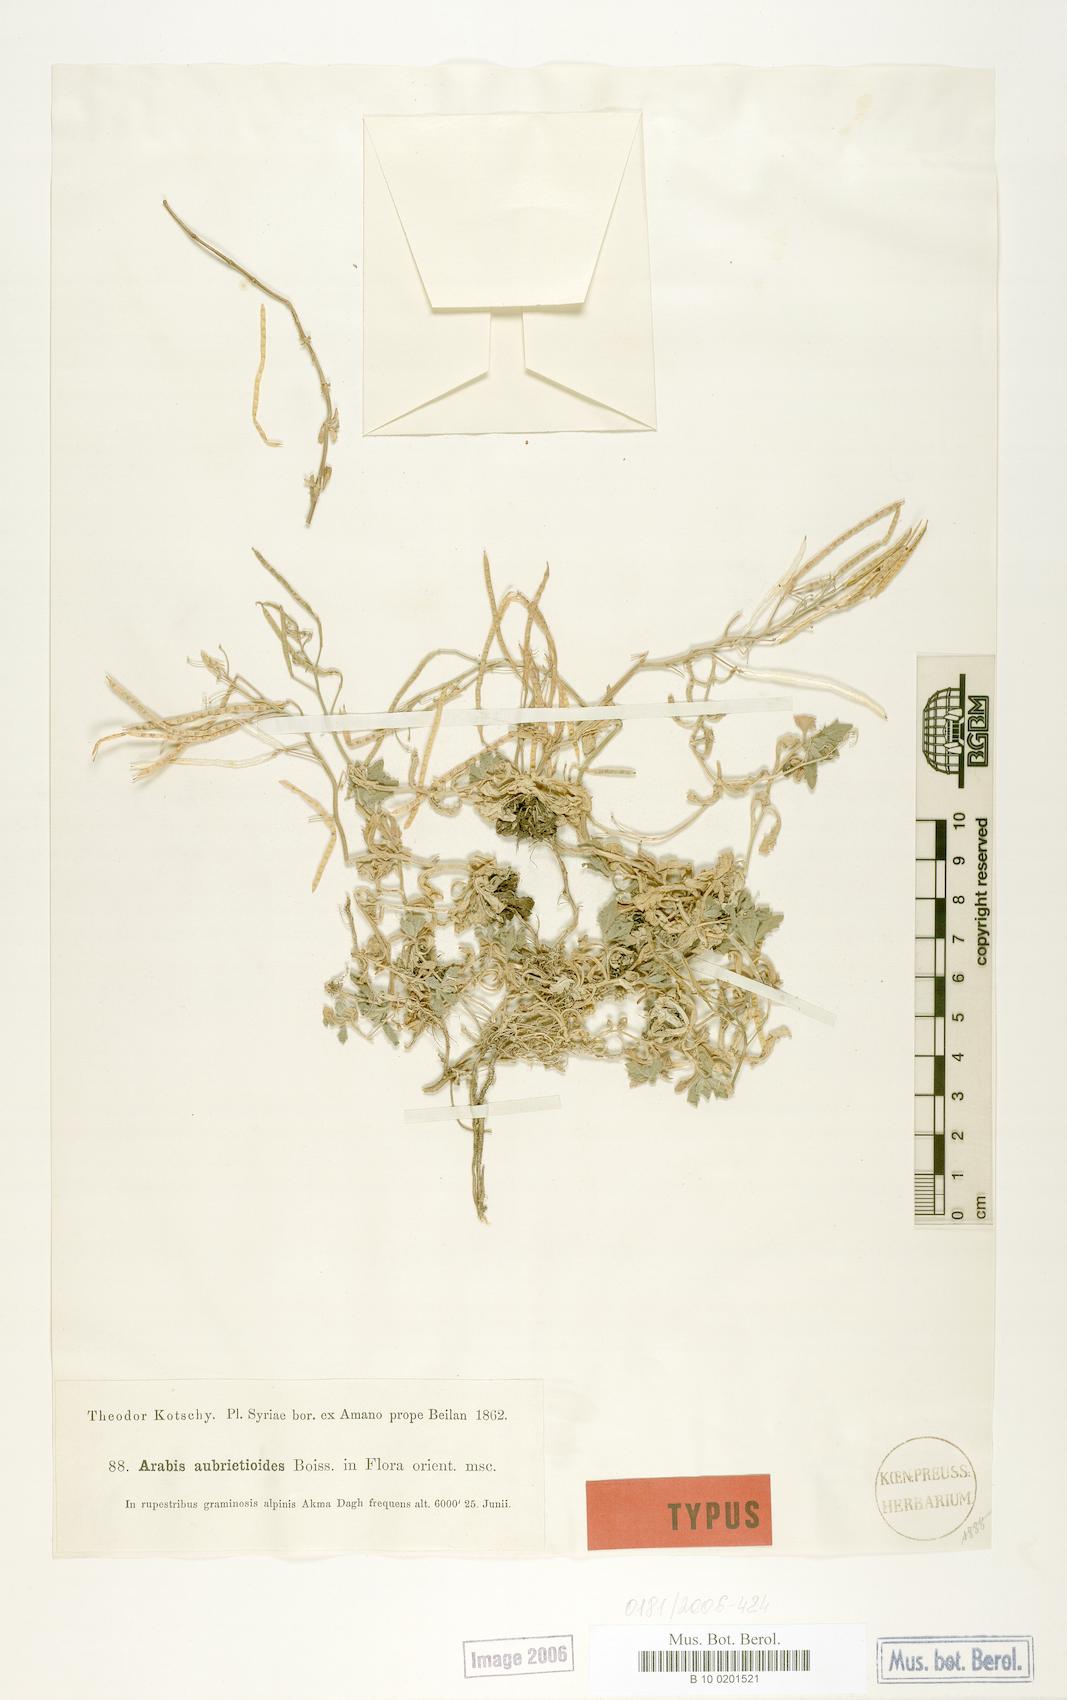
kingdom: Plantae
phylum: Tracheophyta
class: Magnoliopsida
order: Brassicales
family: Brassicaceae
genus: Arabis
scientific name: Arabis aubrietioides
